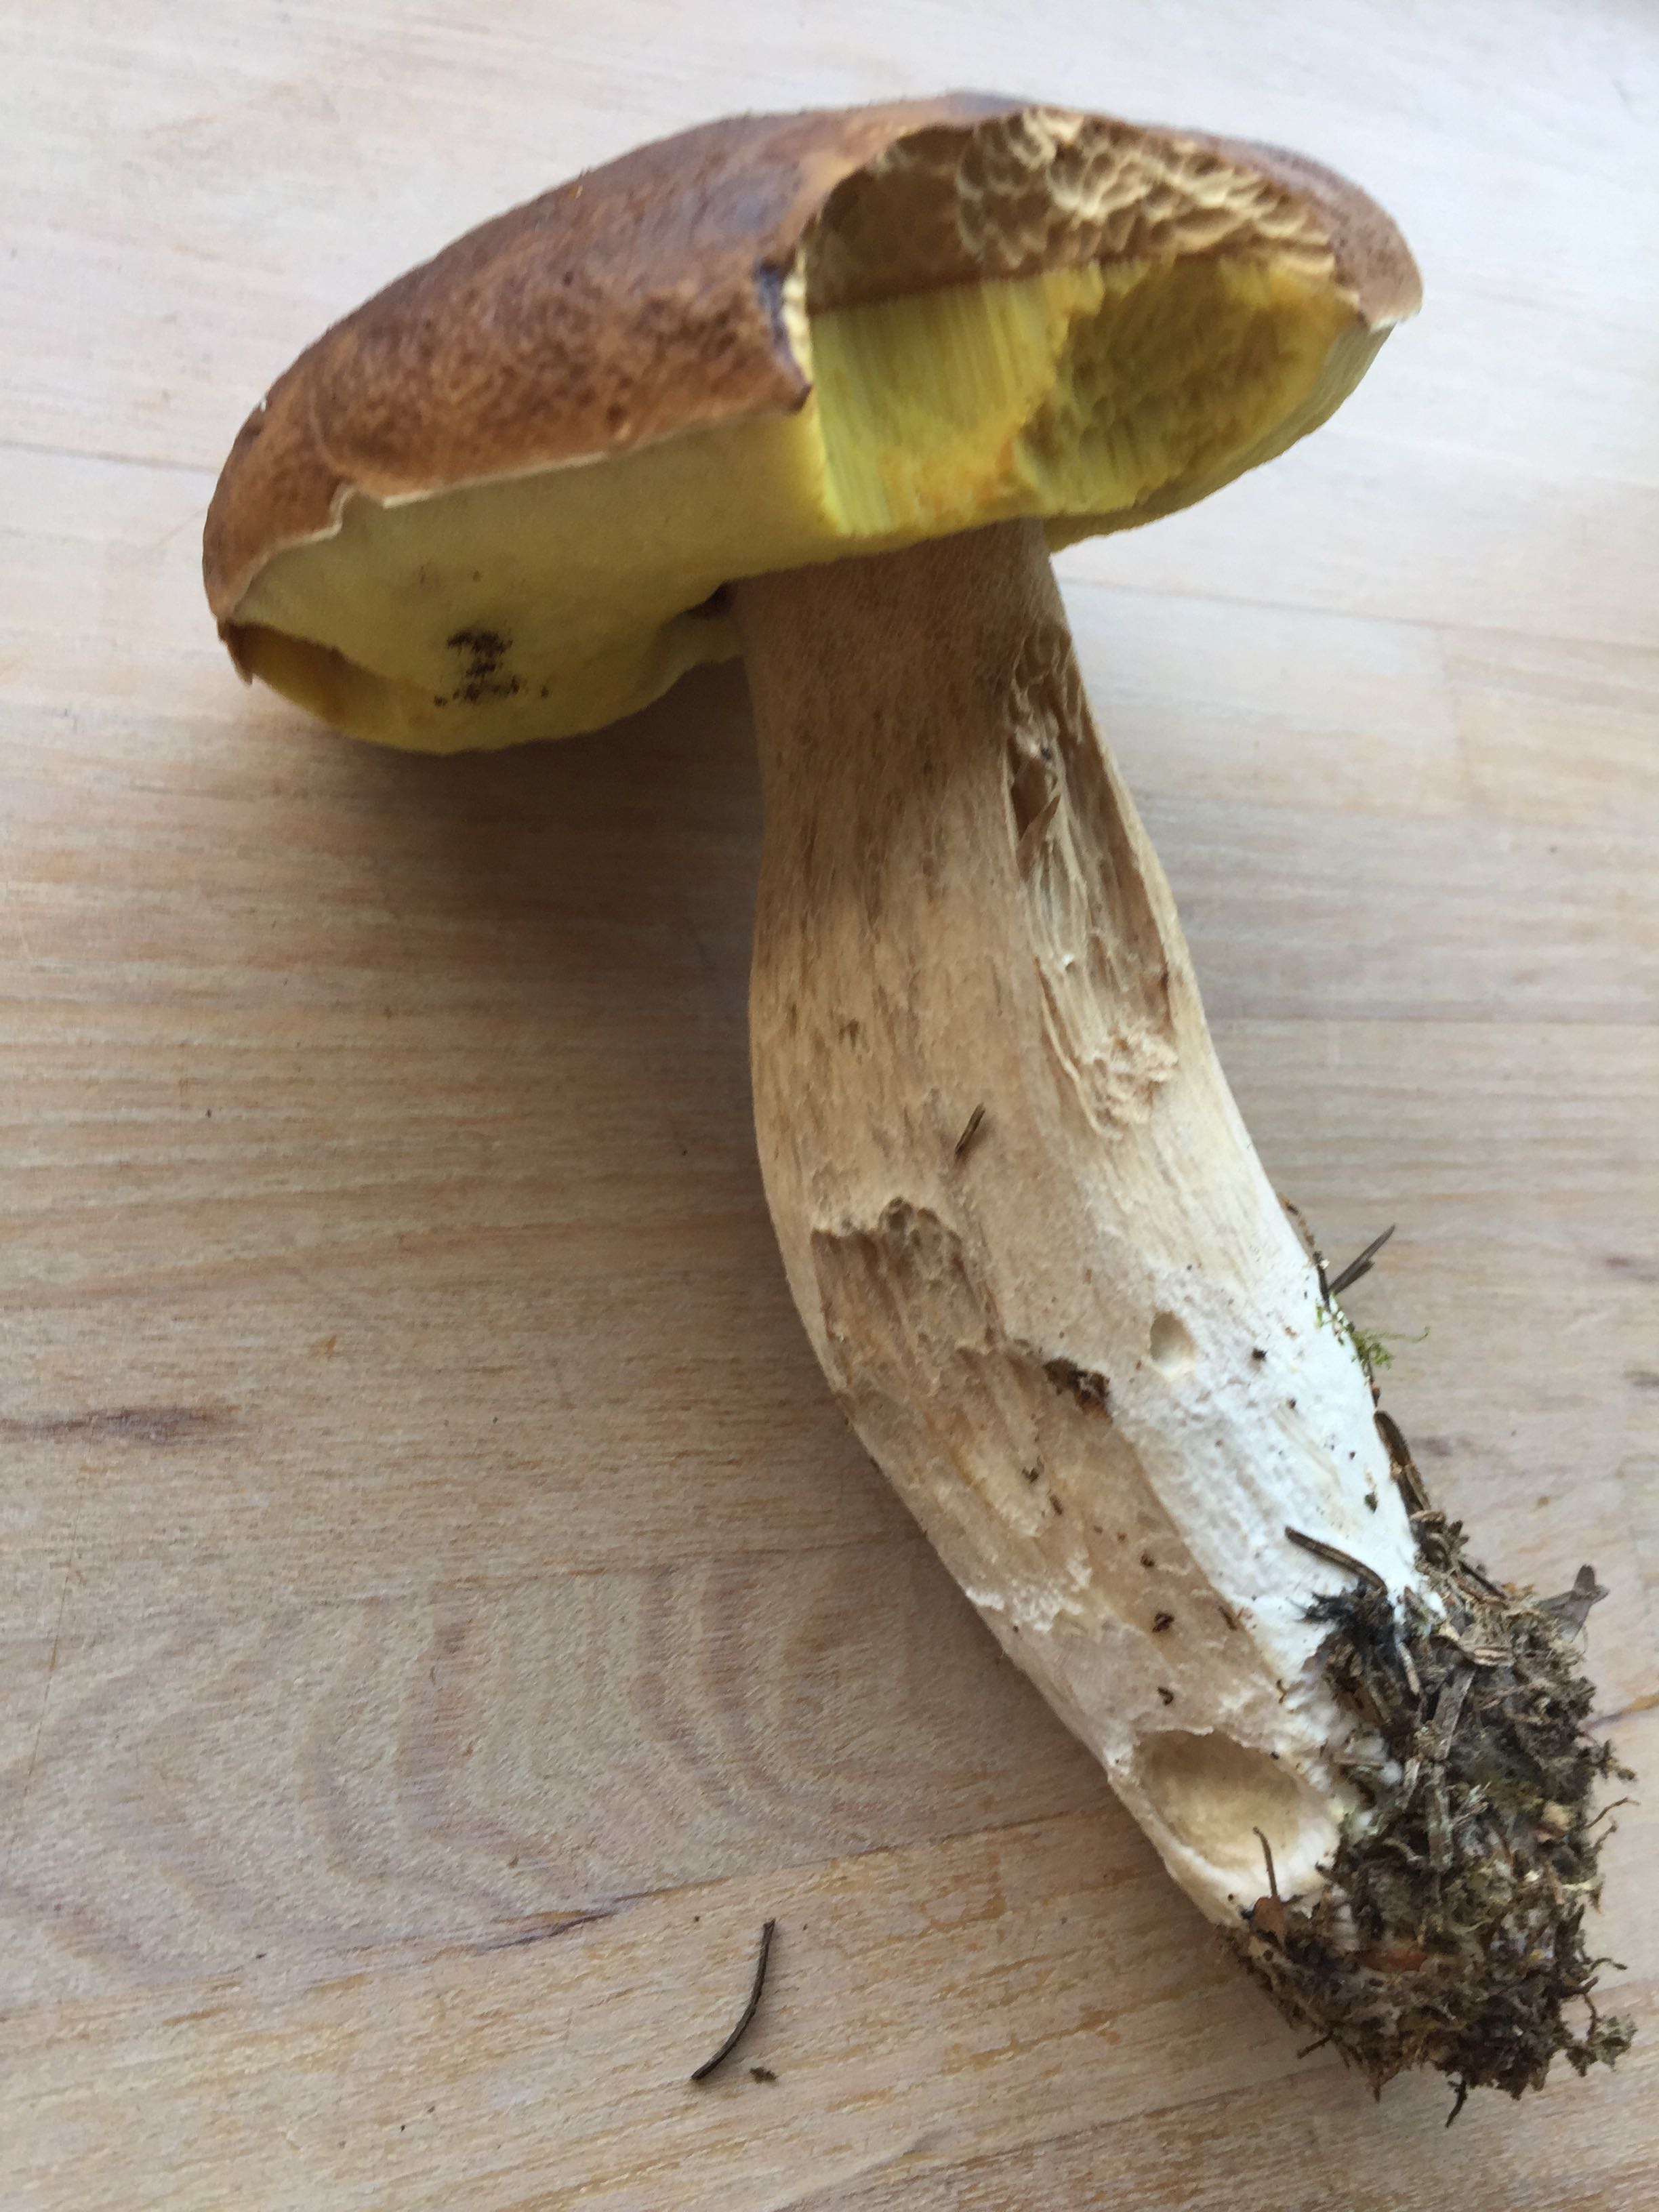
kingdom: Fungi
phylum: Basidiomycota
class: Agaricomycetes
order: Boletales
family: Boletaceae
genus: Boletus
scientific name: Boletus edulis
